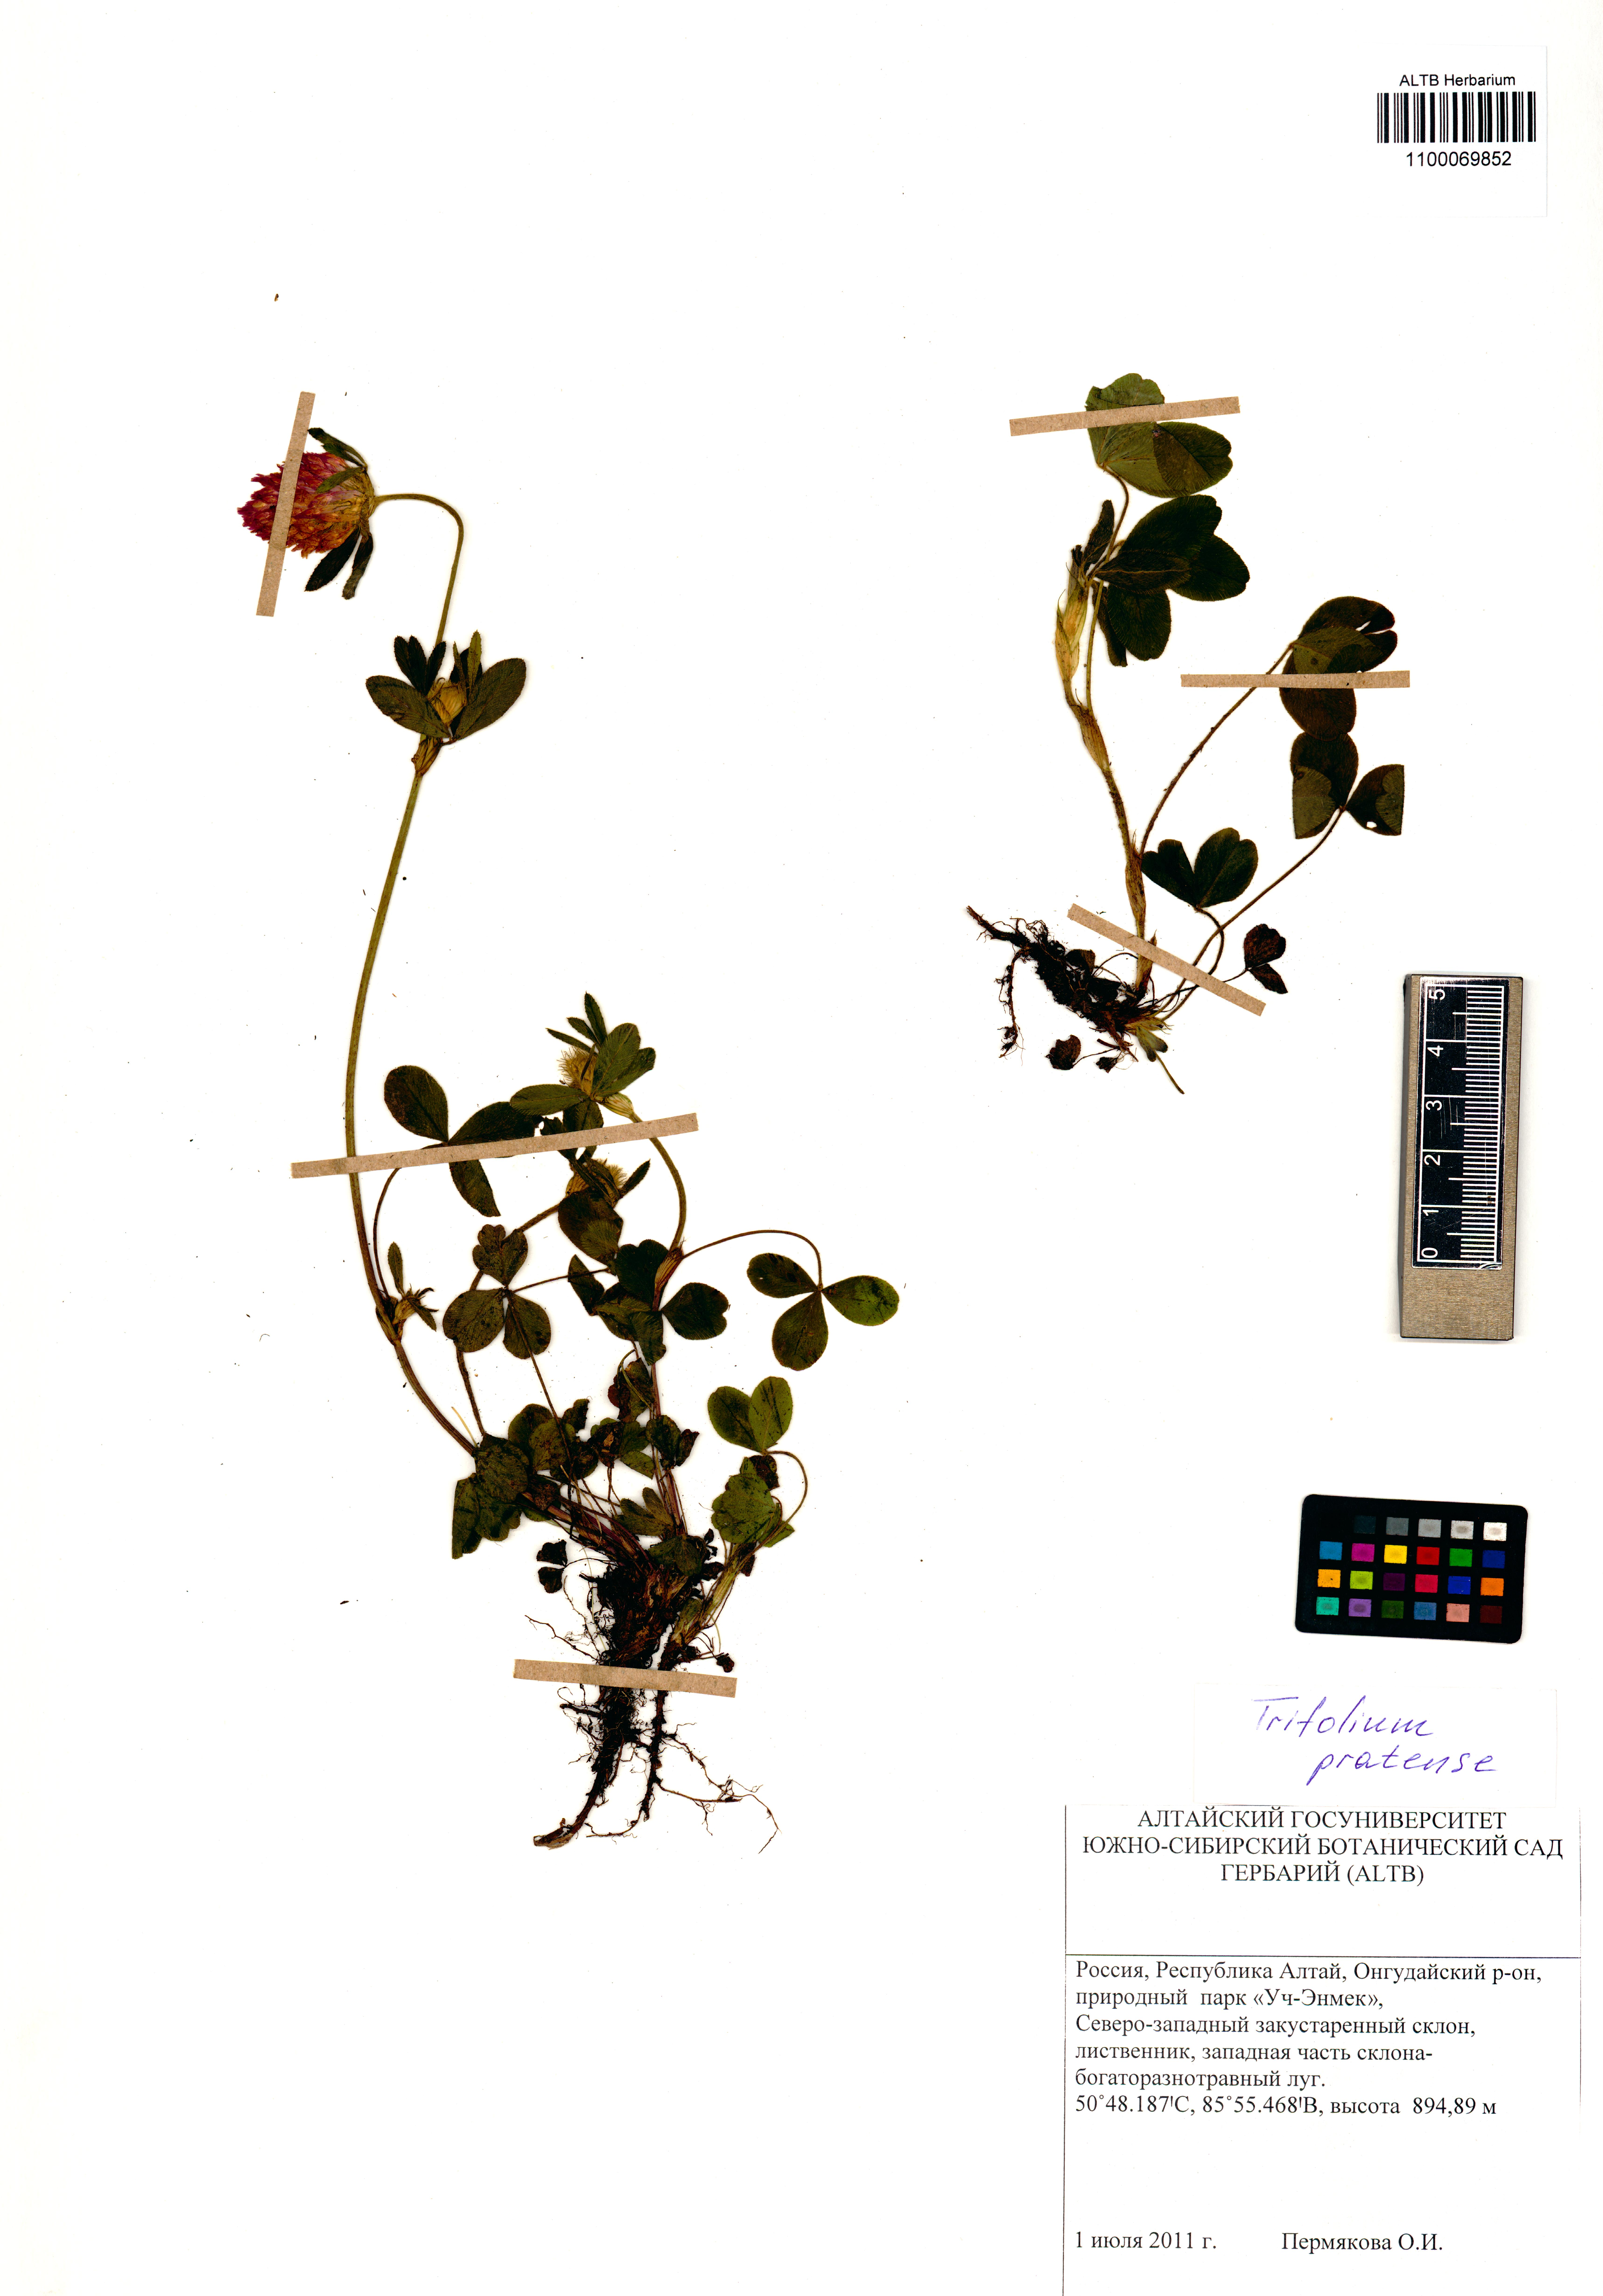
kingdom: Plantae
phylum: Tracheophyta
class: Magnoliopsida
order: Fabales
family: Fabaceae
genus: Trifolium
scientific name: Trifolium pratense
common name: Red clover
